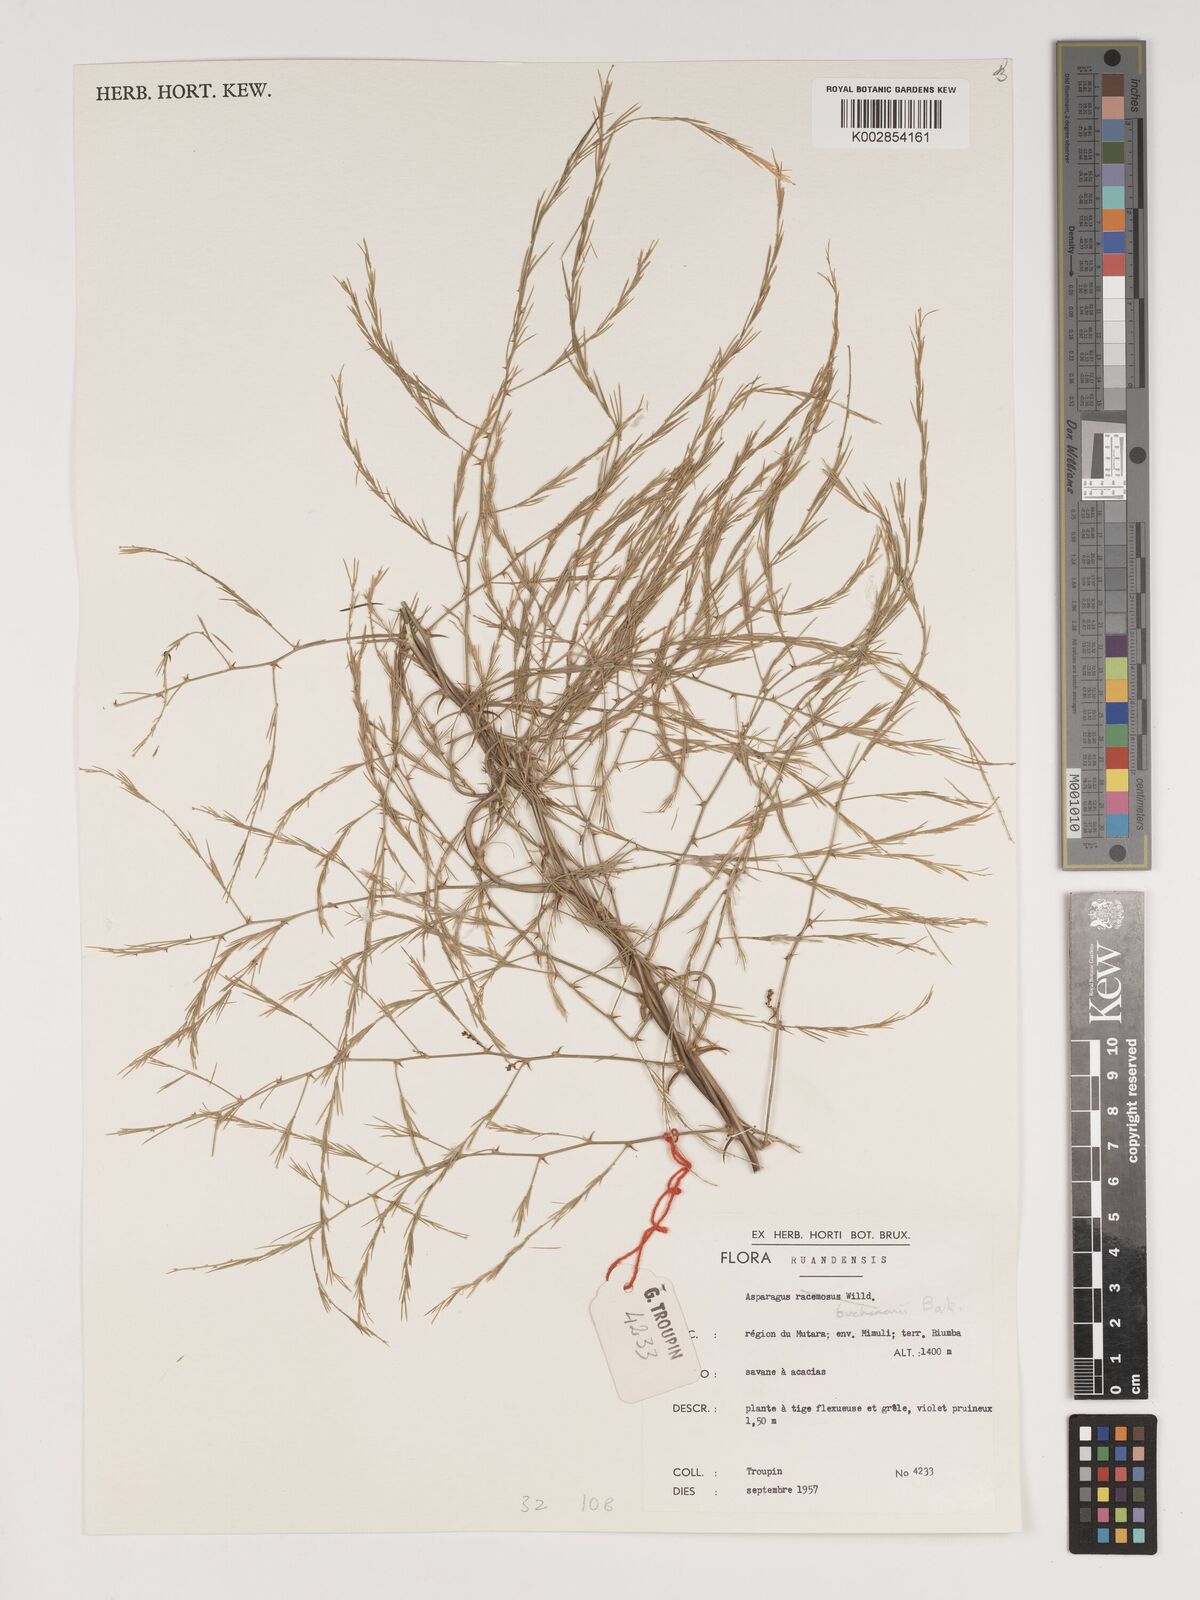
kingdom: Plantae
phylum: Tracheophyta
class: Liliopsida
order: Asparagales
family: Asparagaceae
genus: Asparagus
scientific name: Asparagus buchananii
